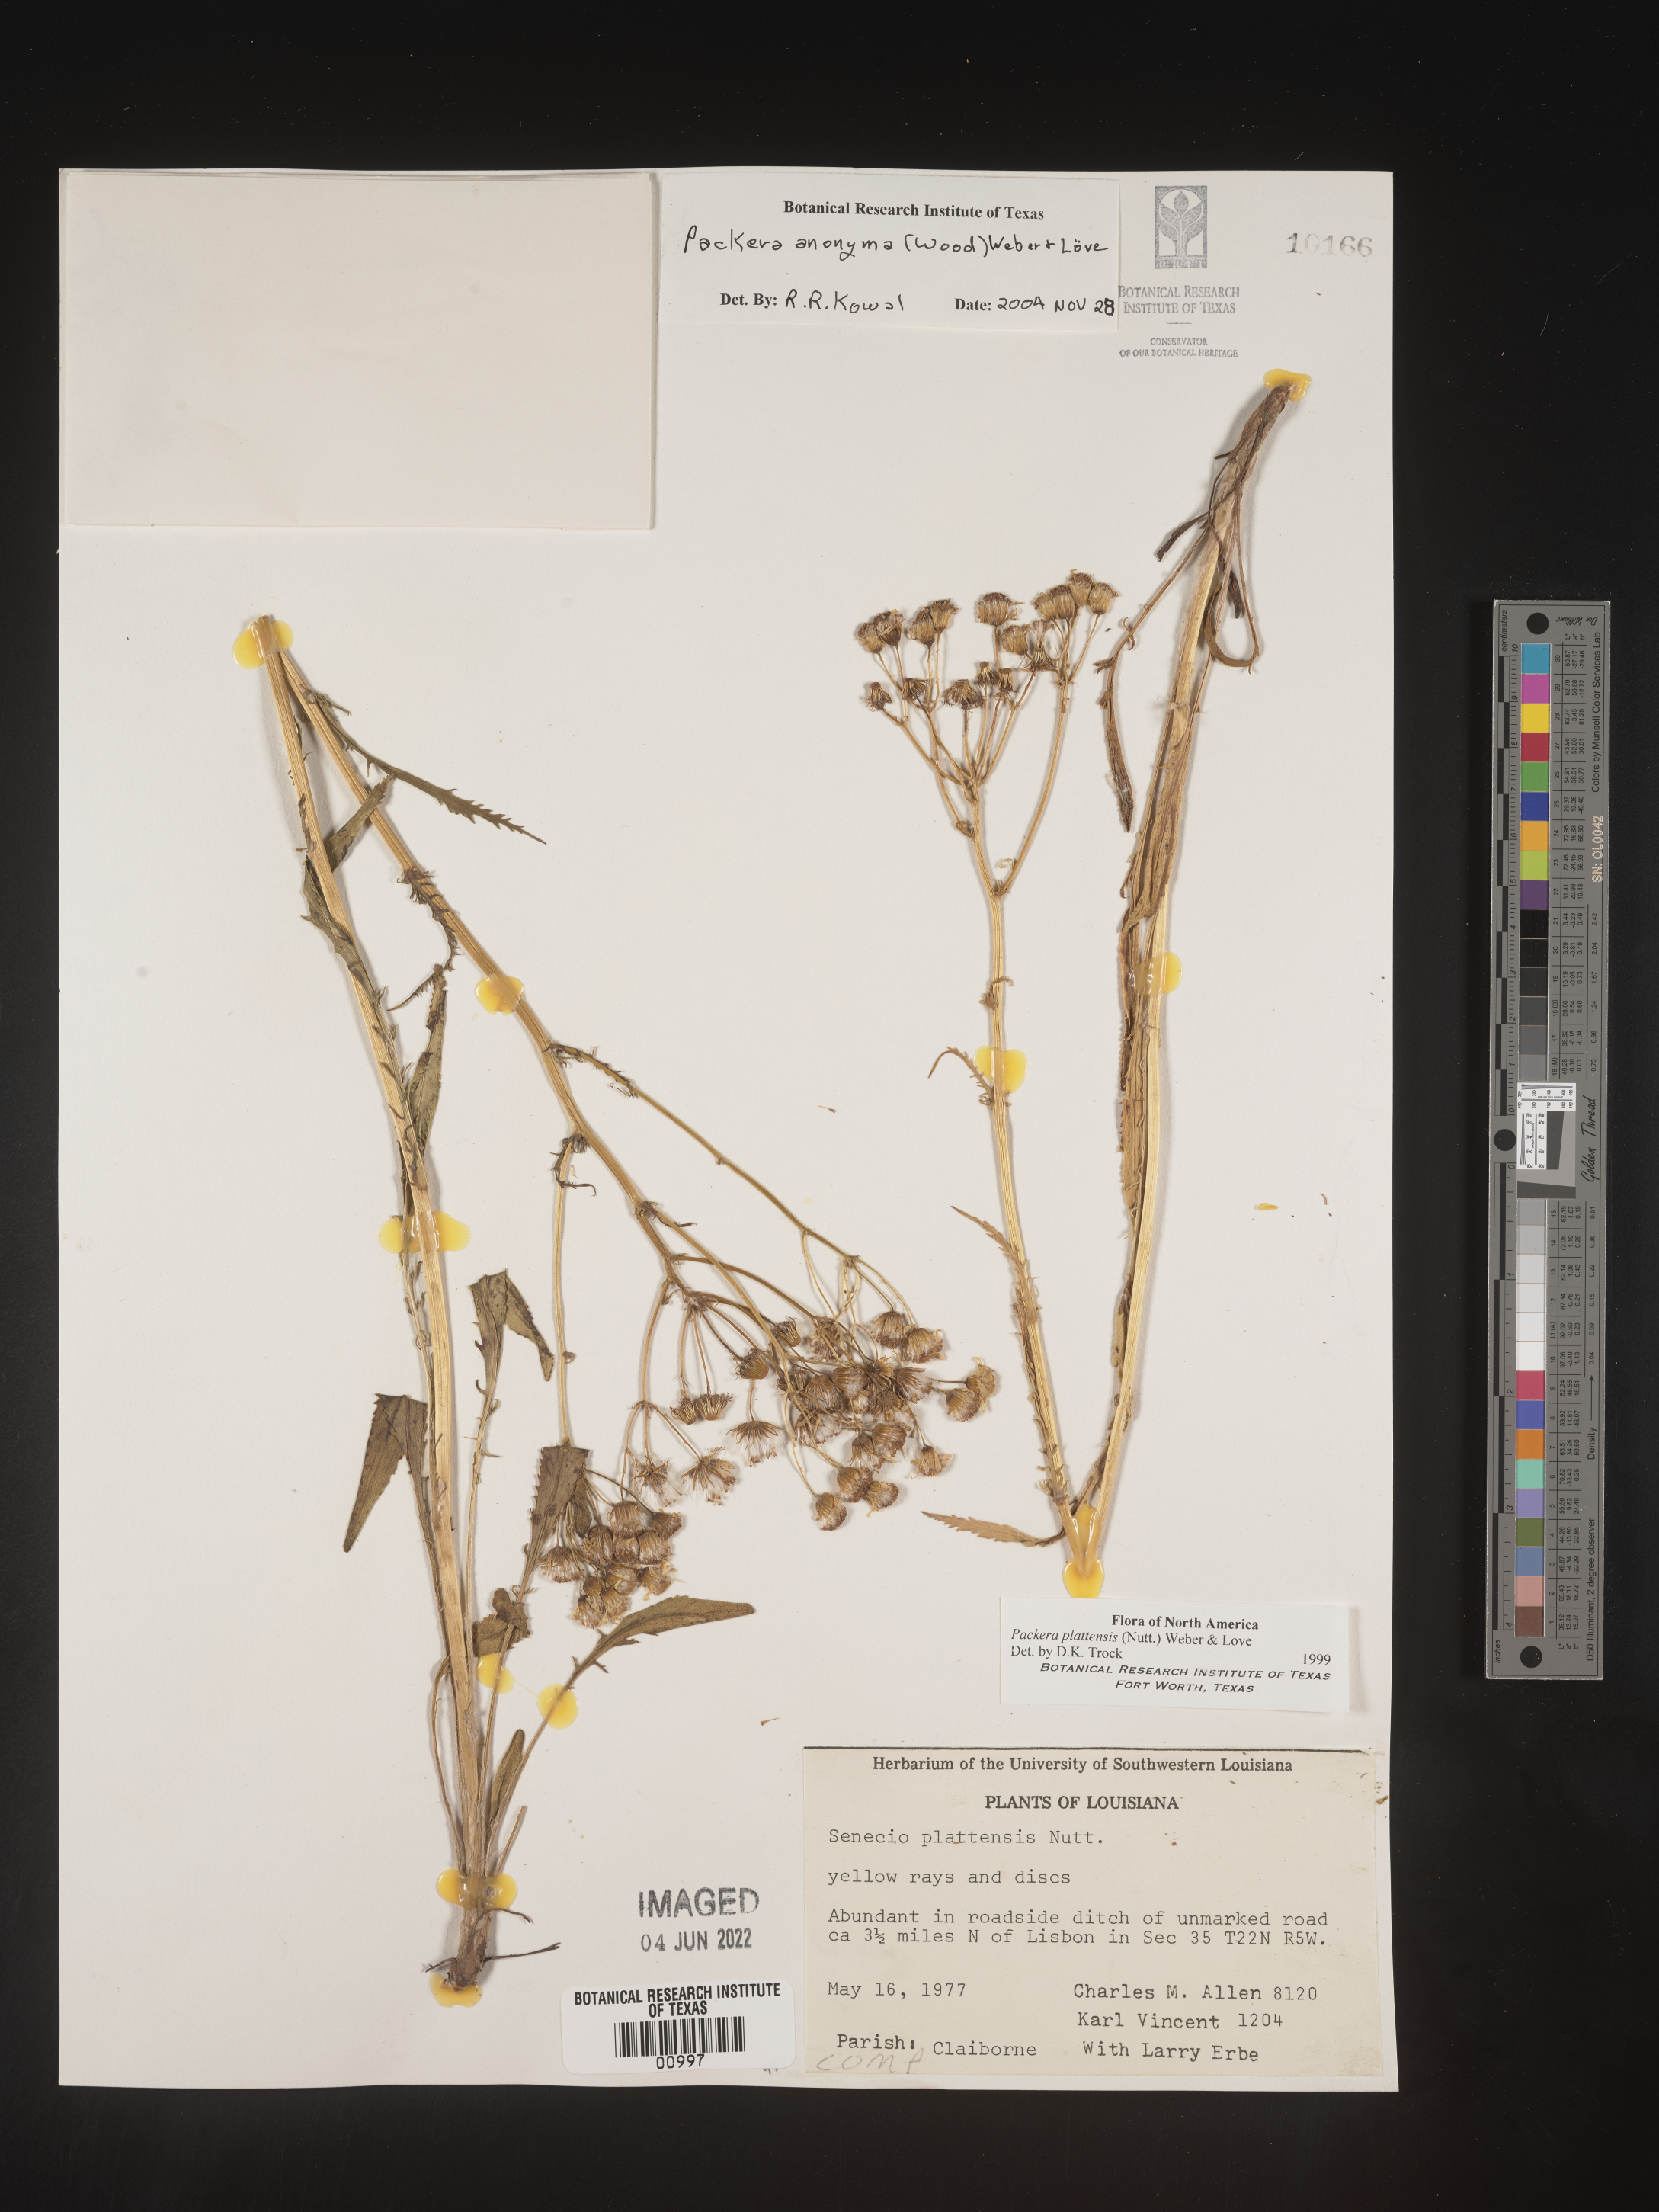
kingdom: Plantae
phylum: Tracheophyta
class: Magnoliopsida
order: Asterales
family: Asteraceae
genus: Packera
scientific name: Packera anonyma
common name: Small ragwort
